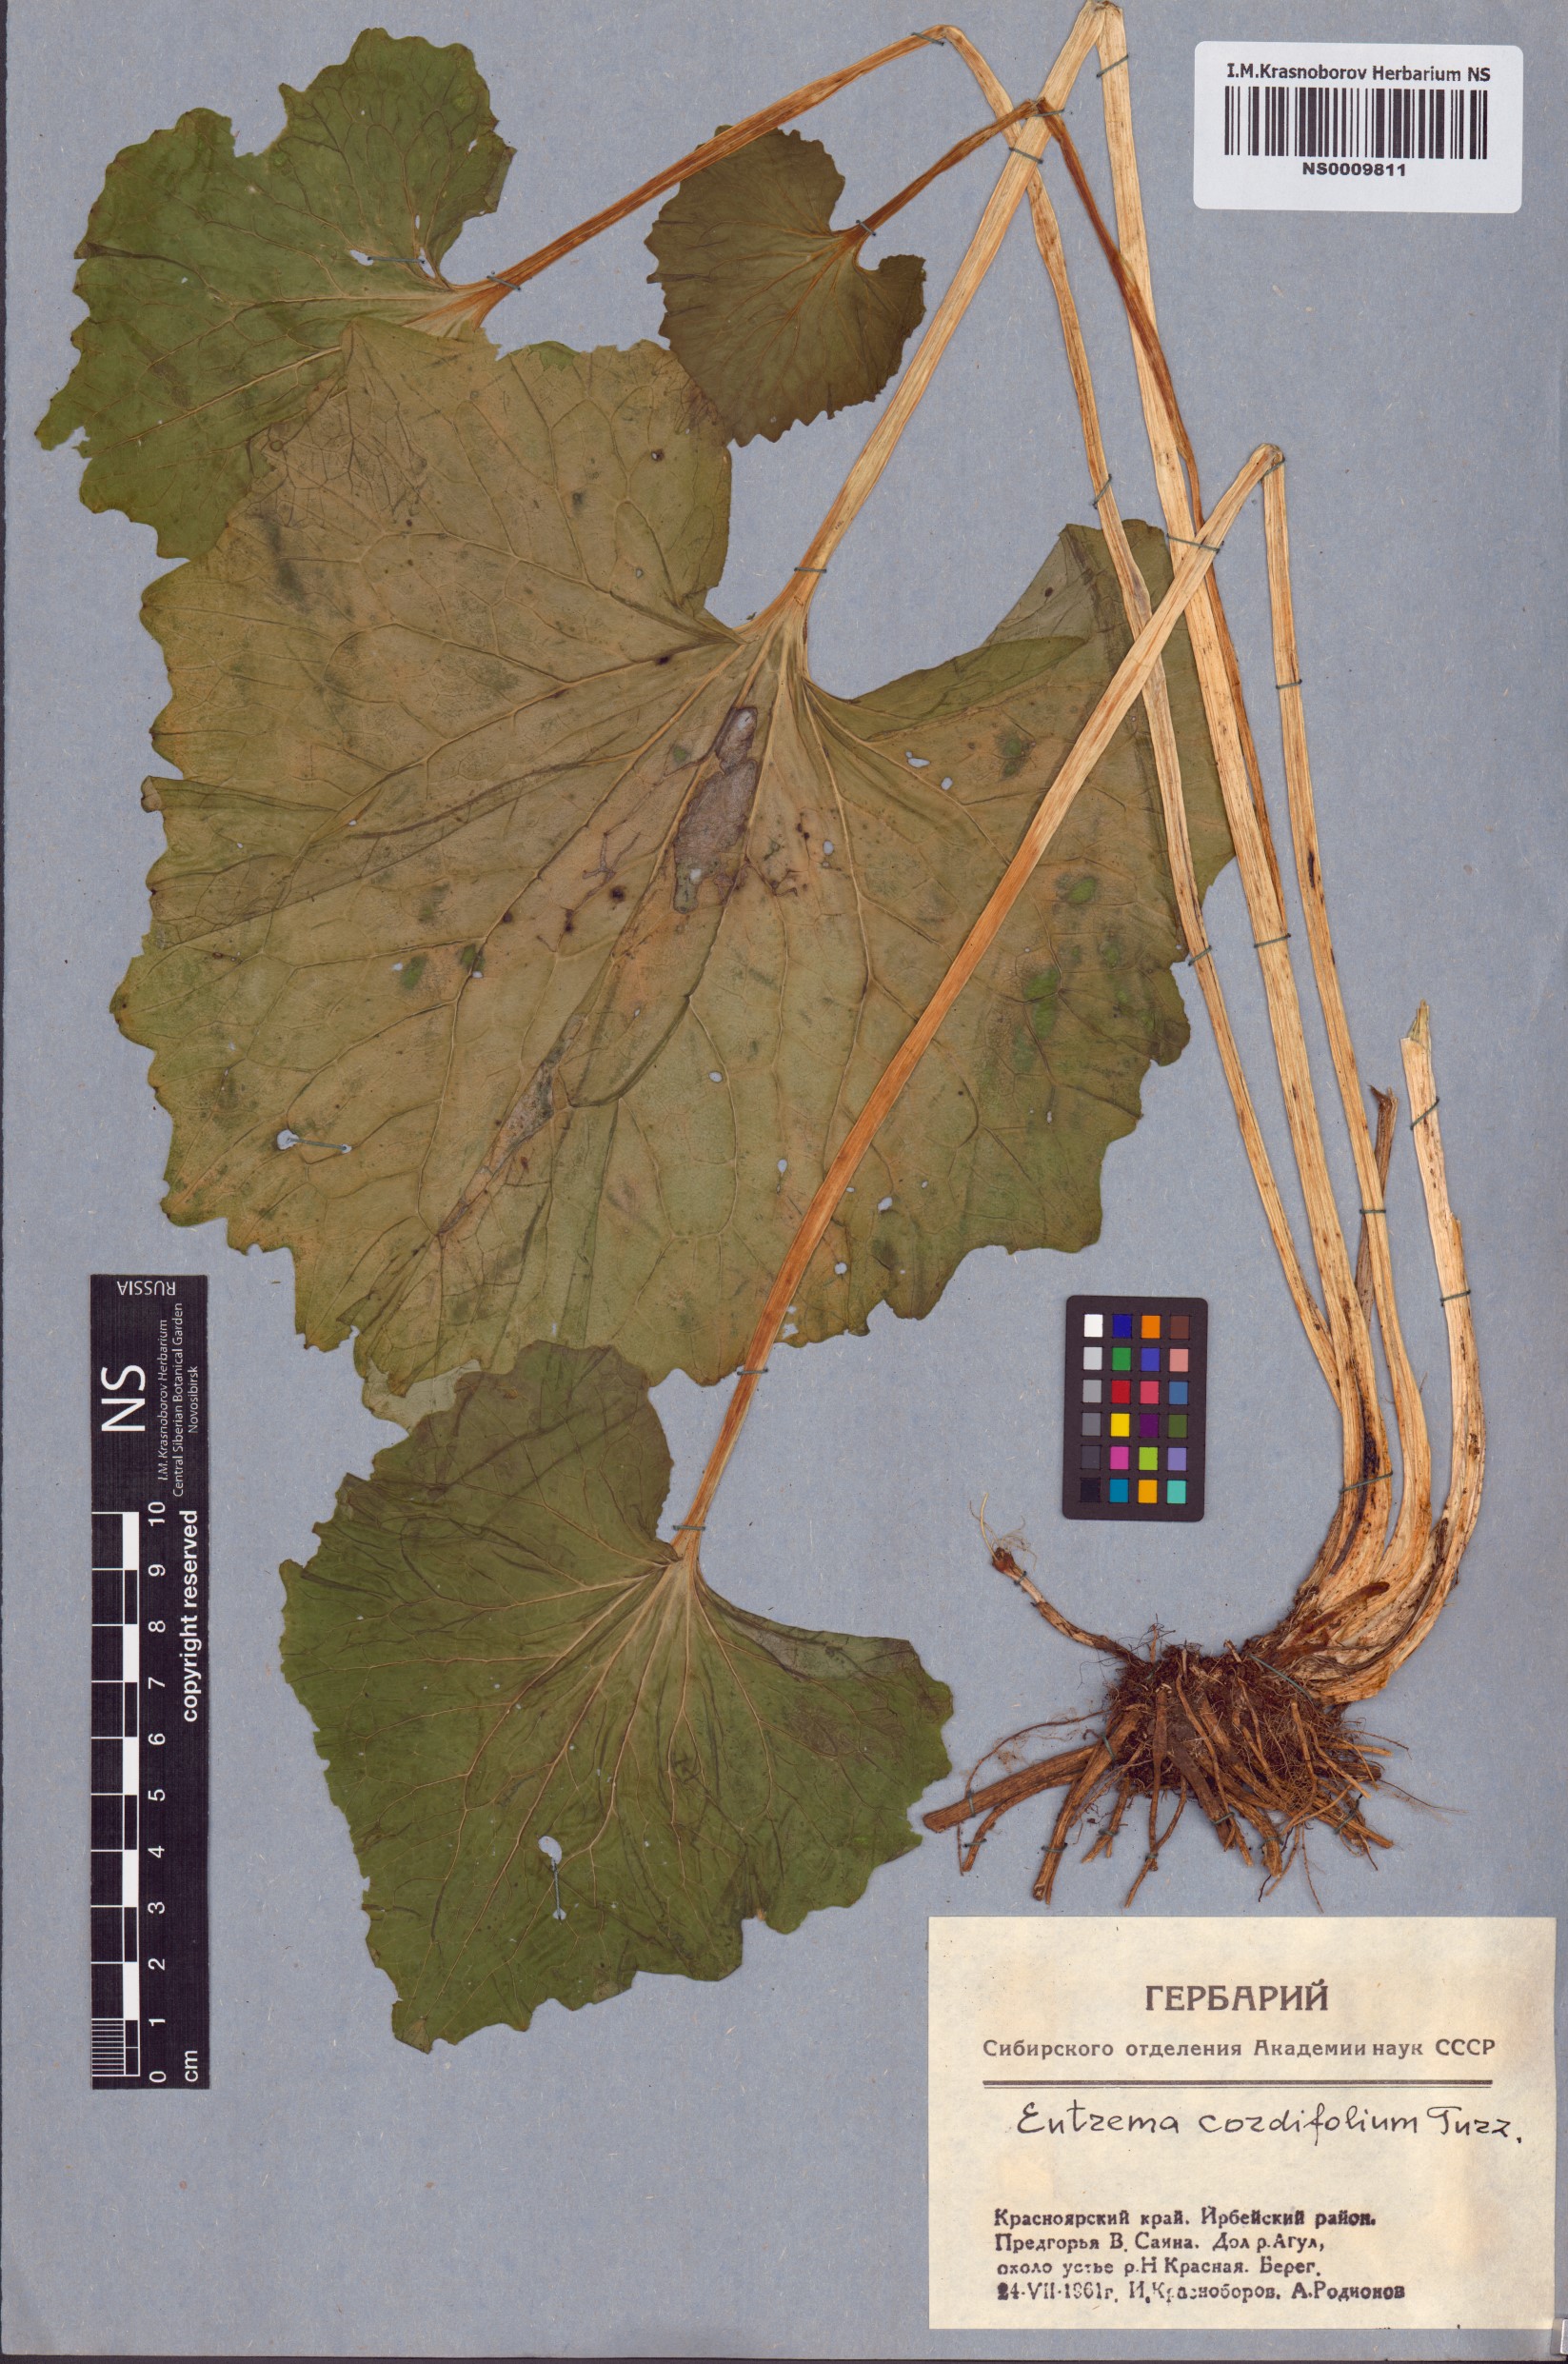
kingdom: Plantae
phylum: Tracheophyta
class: Magnoliopsida
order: Brassicales
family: Brassicaceae
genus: Eutrema
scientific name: Eutrema cordifolium
